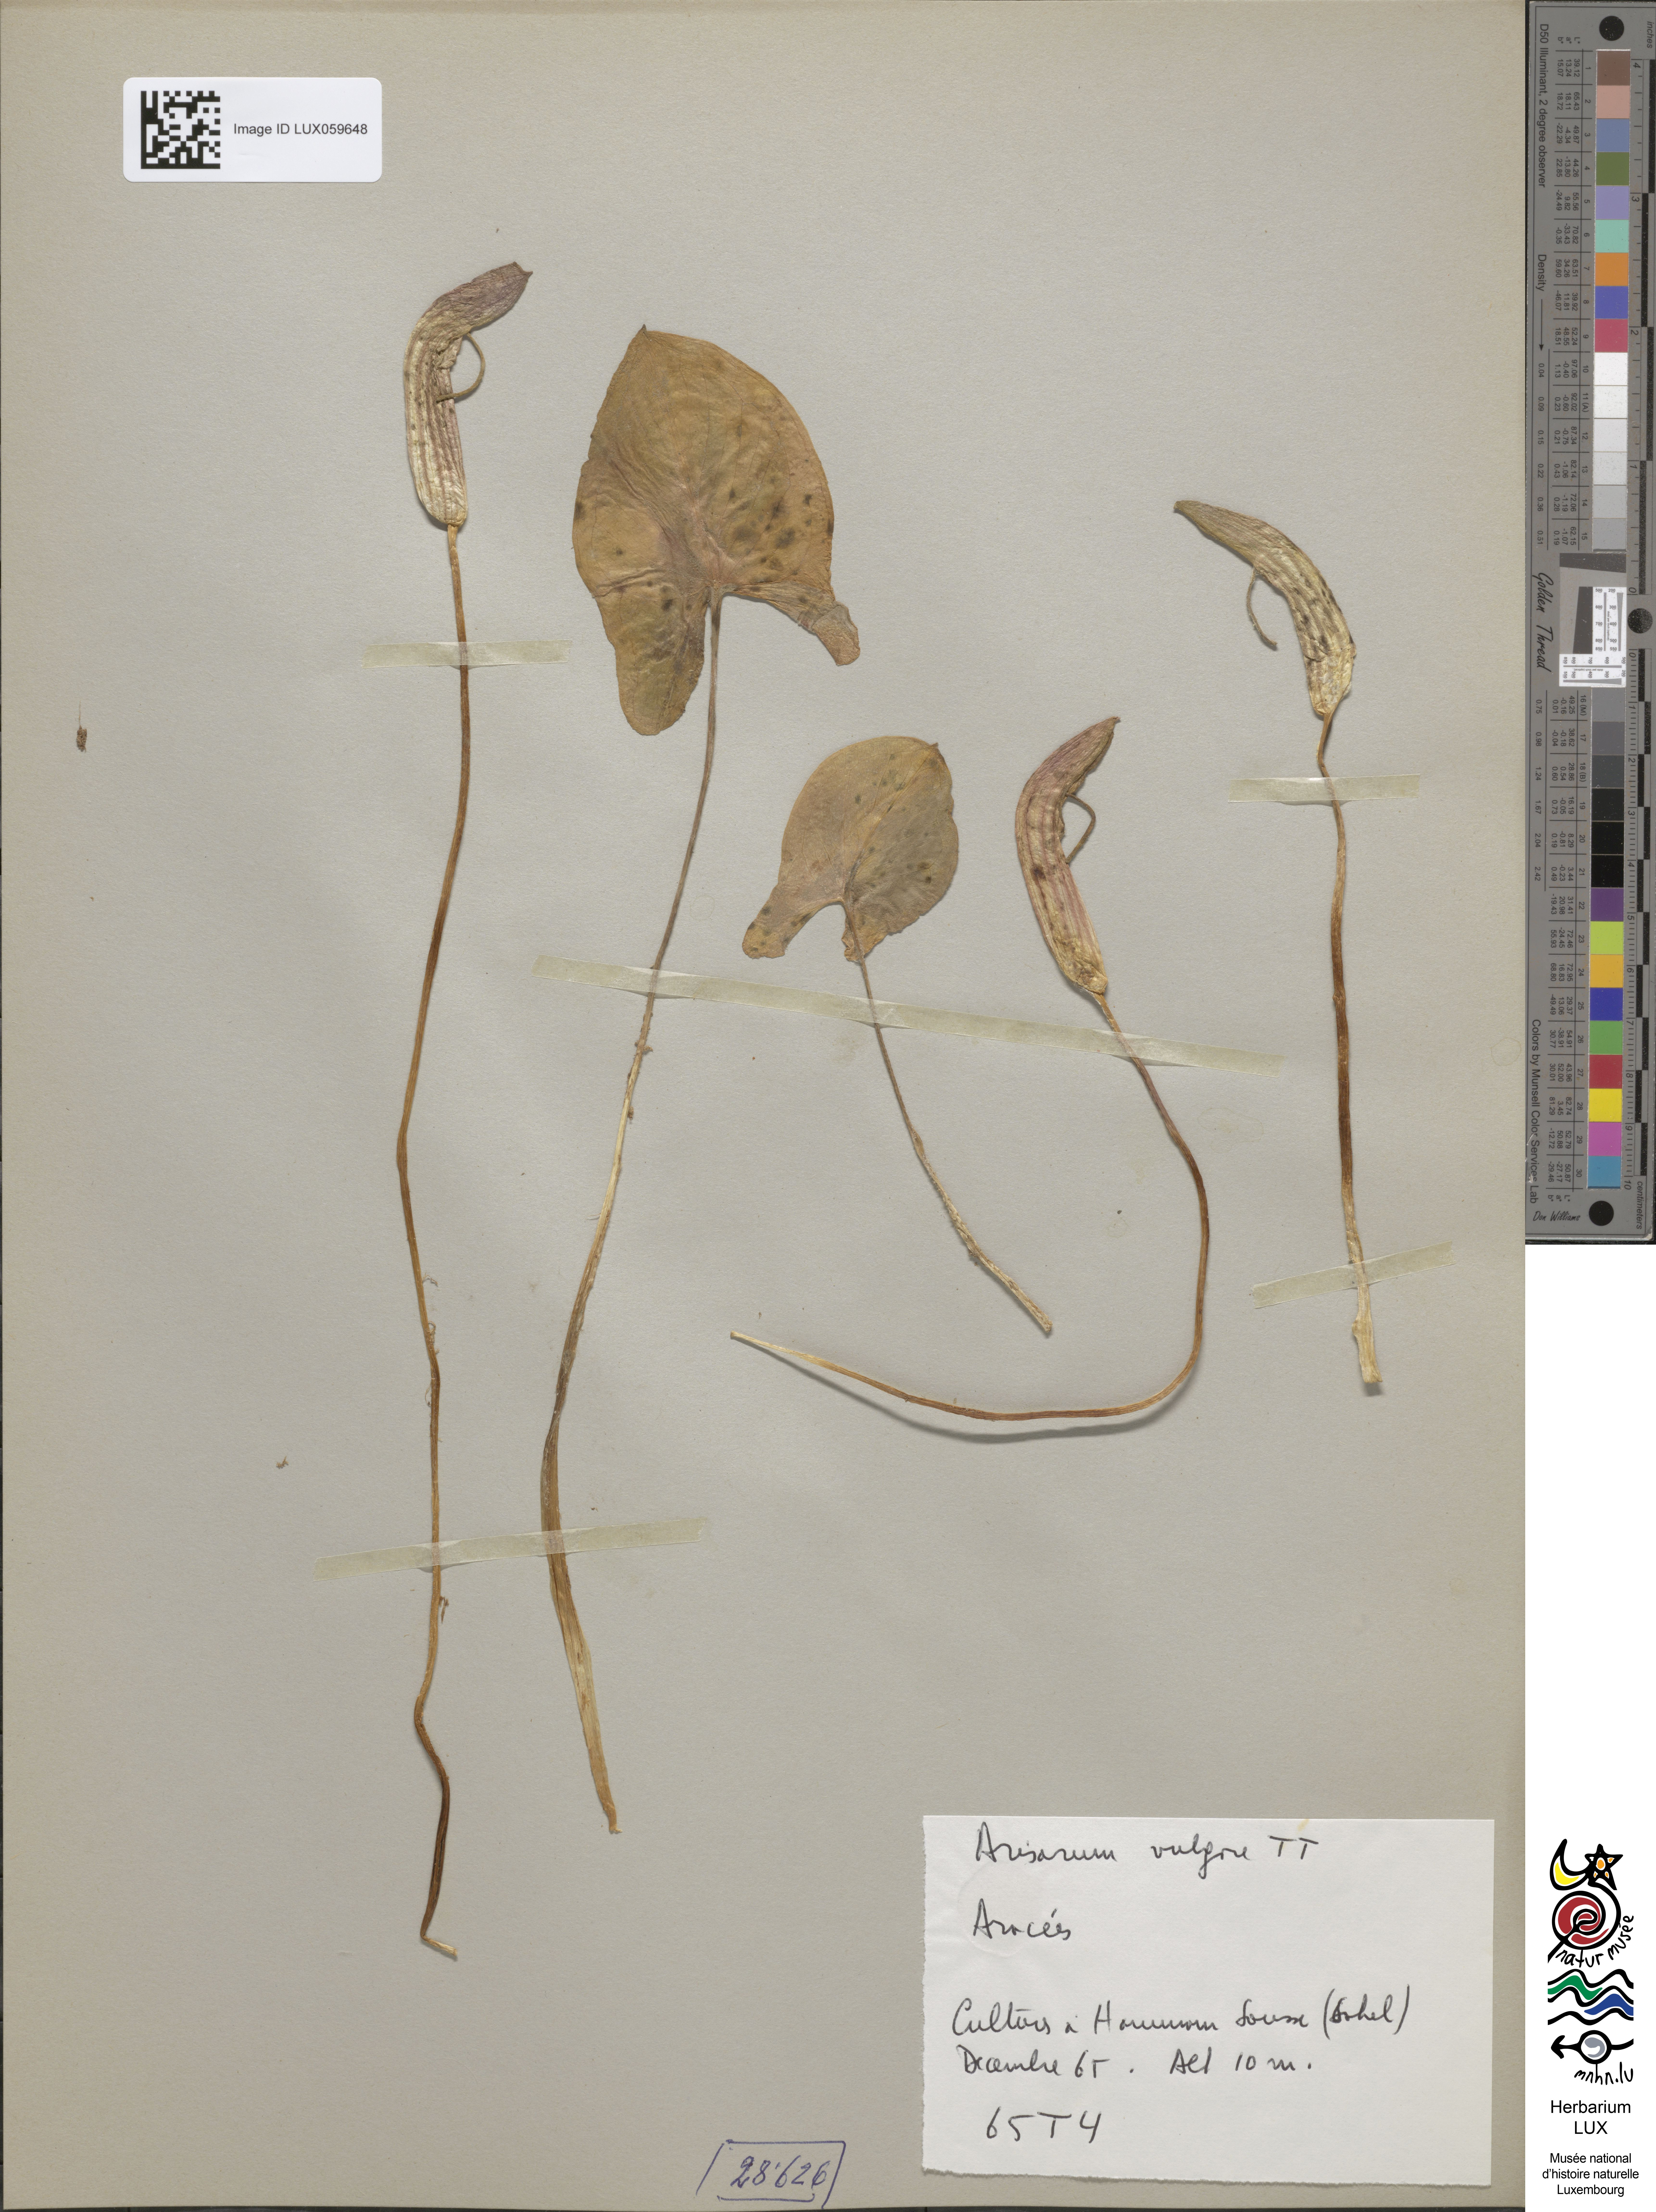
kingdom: Plantae
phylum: Tracheophyta
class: Liliopsida
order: Alismatales
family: Araceae
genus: Arisarum
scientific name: Arisarum vulgare
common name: Common arisarum
